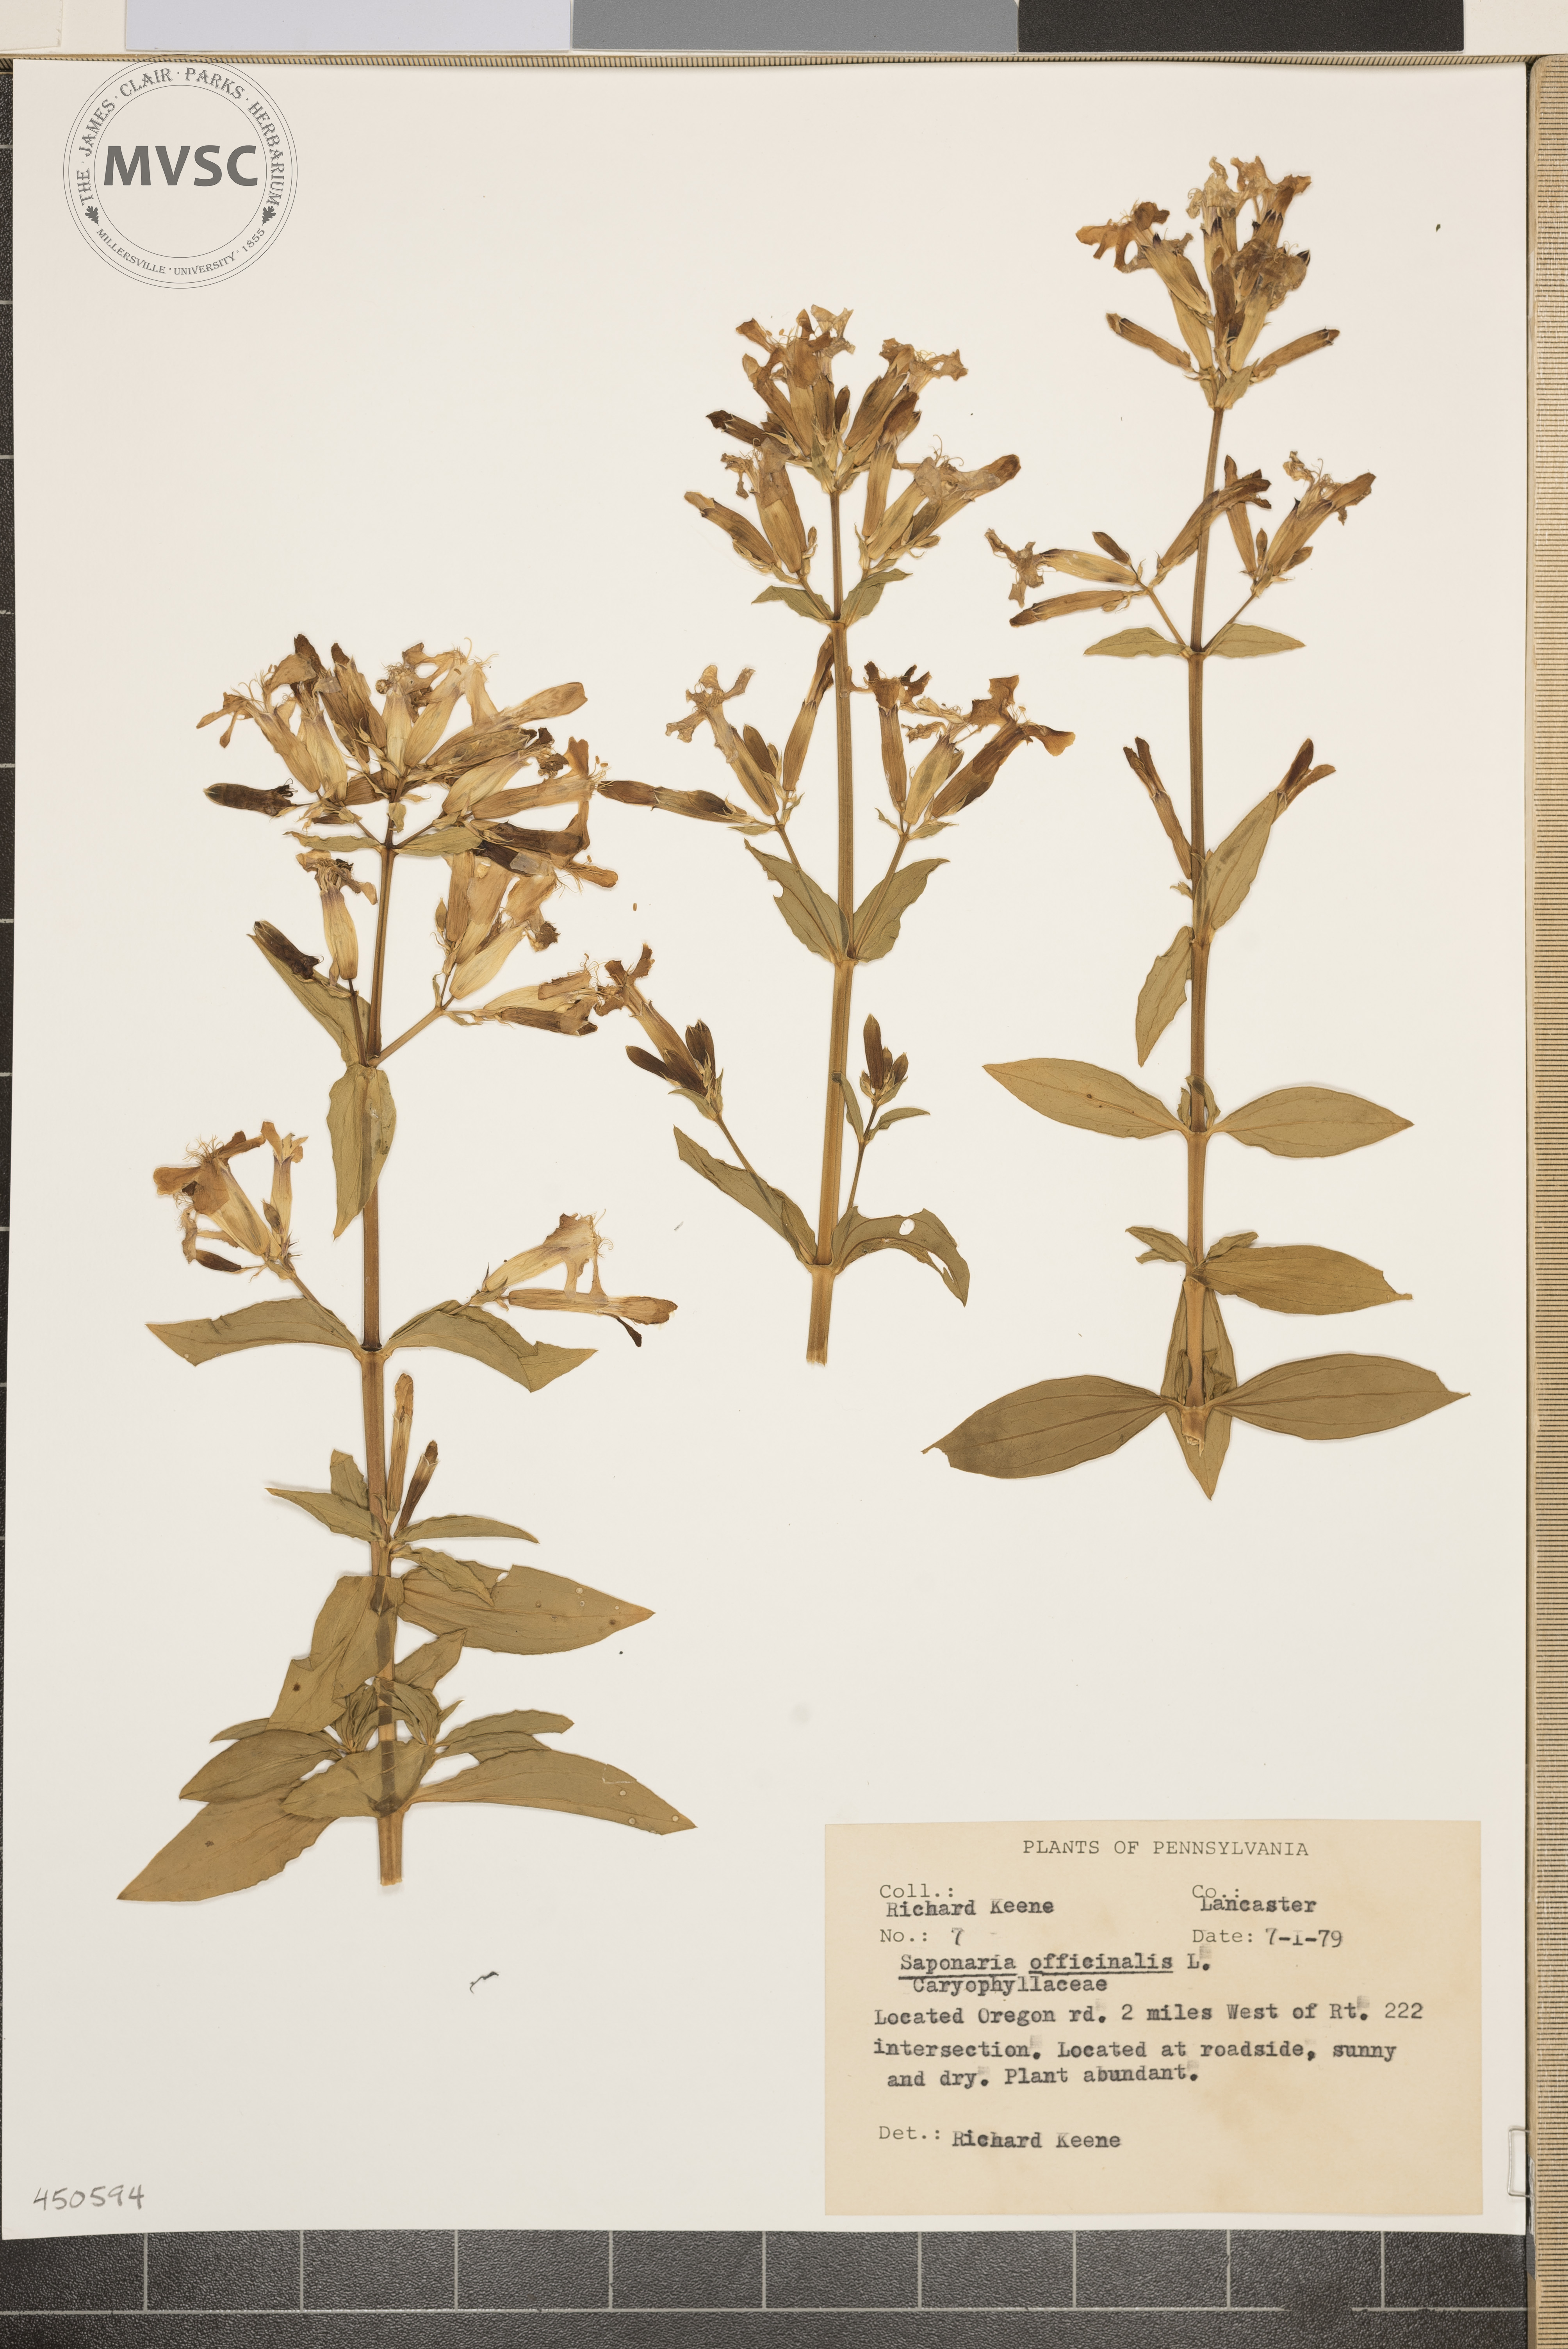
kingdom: Plantae
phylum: Tracheophyta
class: Magnoliopsida
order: Caryophyllales
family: Caryophyllaceae
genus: Saponaria
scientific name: Saponaria officinalis
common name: Soapwort
